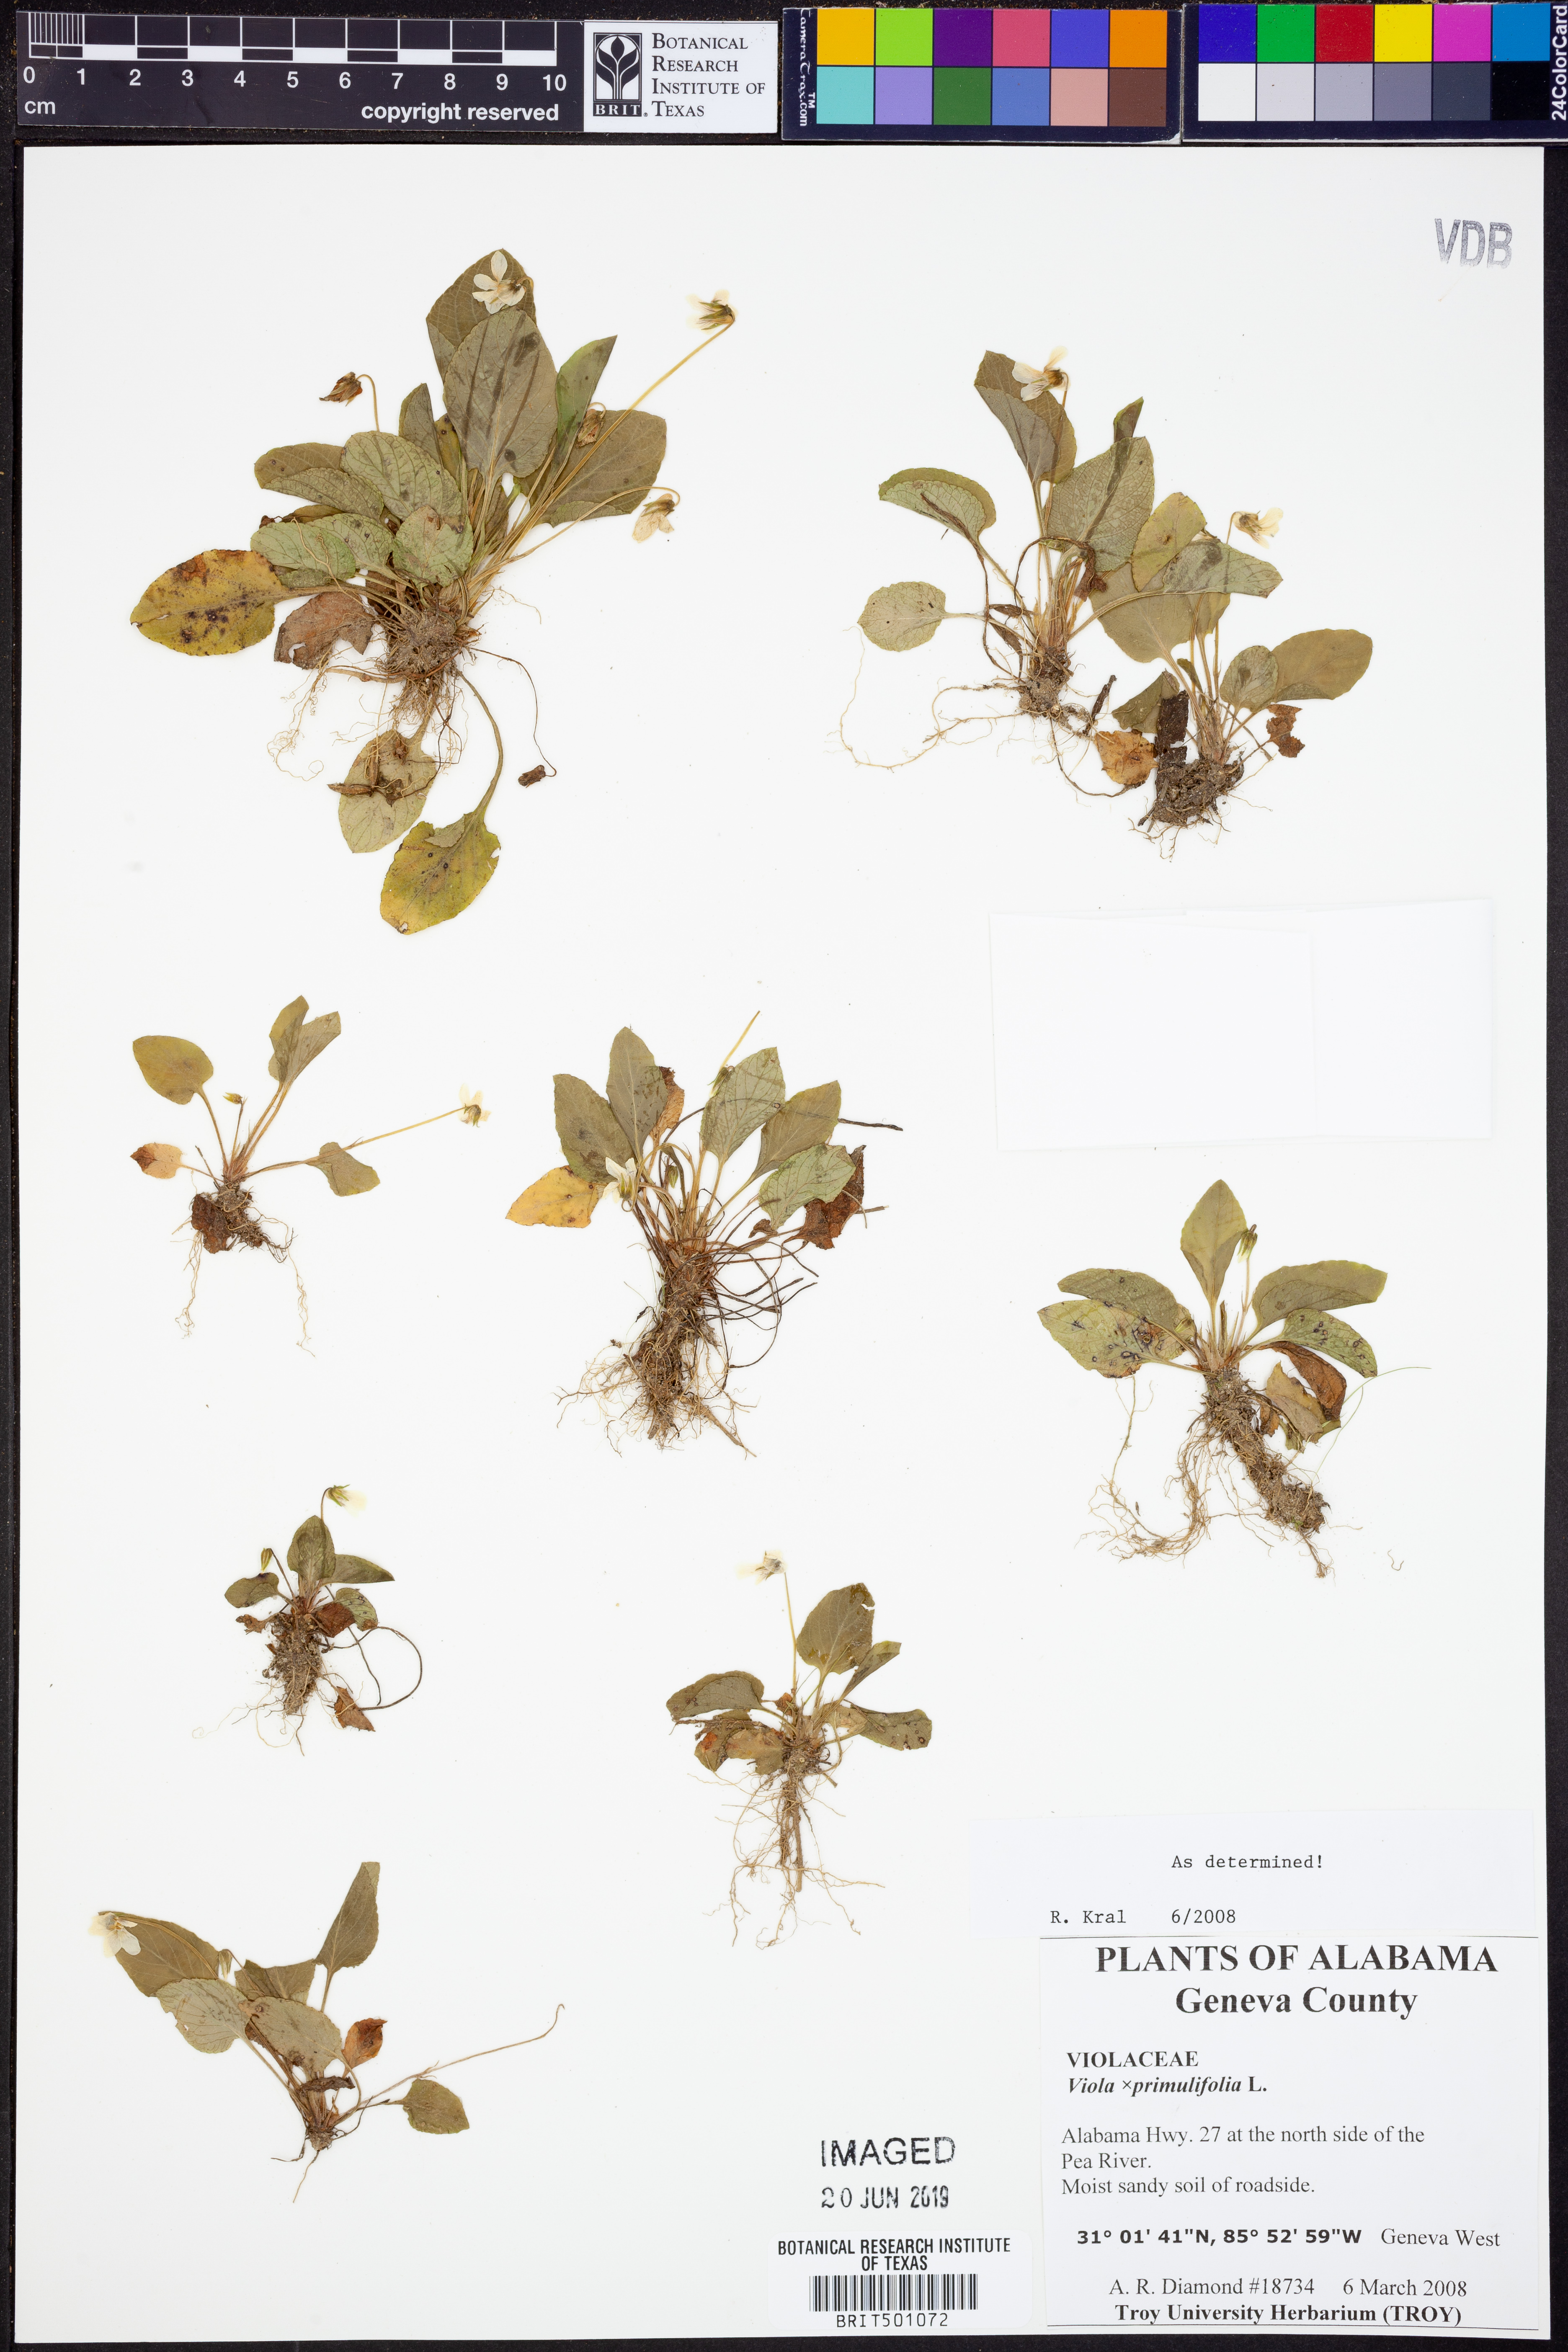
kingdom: Plantae
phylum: Tracheophyta
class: Magnoliopsida
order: Malpighiales
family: Violaceae
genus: Viola
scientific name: Viola primulifolia
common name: Primrose-leaf violet
